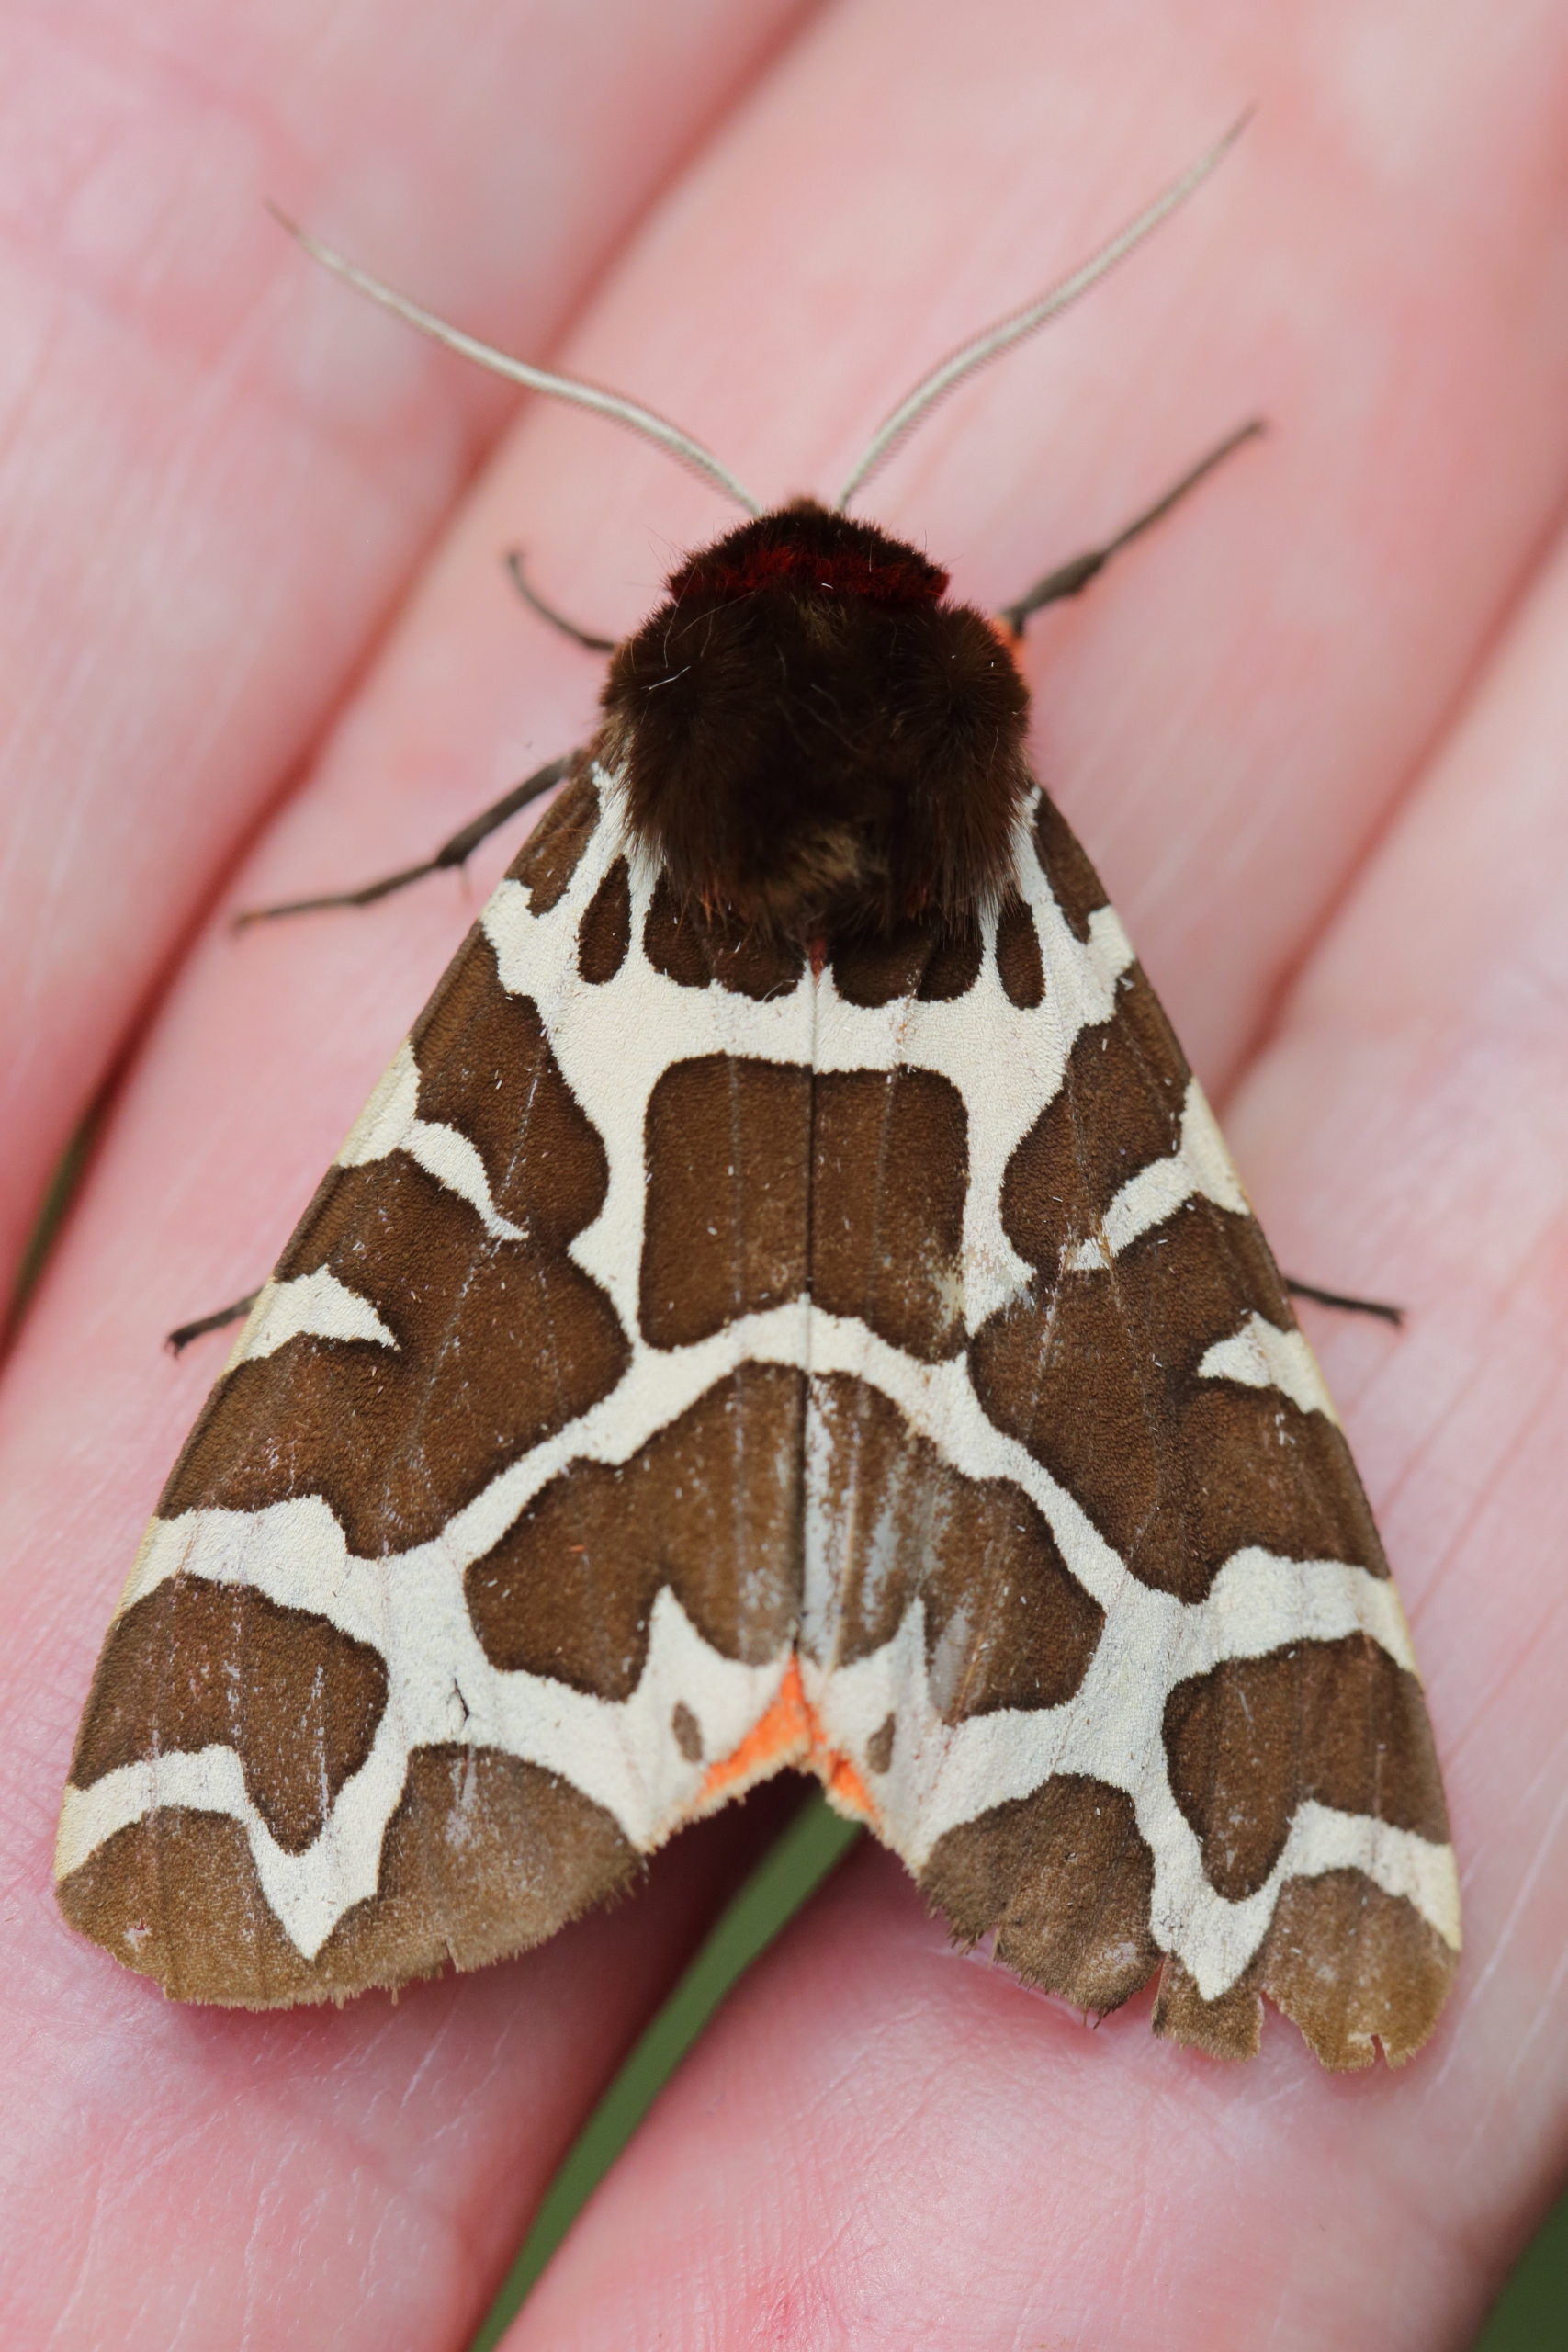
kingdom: Animalia
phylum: Arthropoda
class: Insecta
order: Lepidoptera
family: Erebidae
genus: Arctia
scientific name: Arctia caja
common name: Brun bjørn
